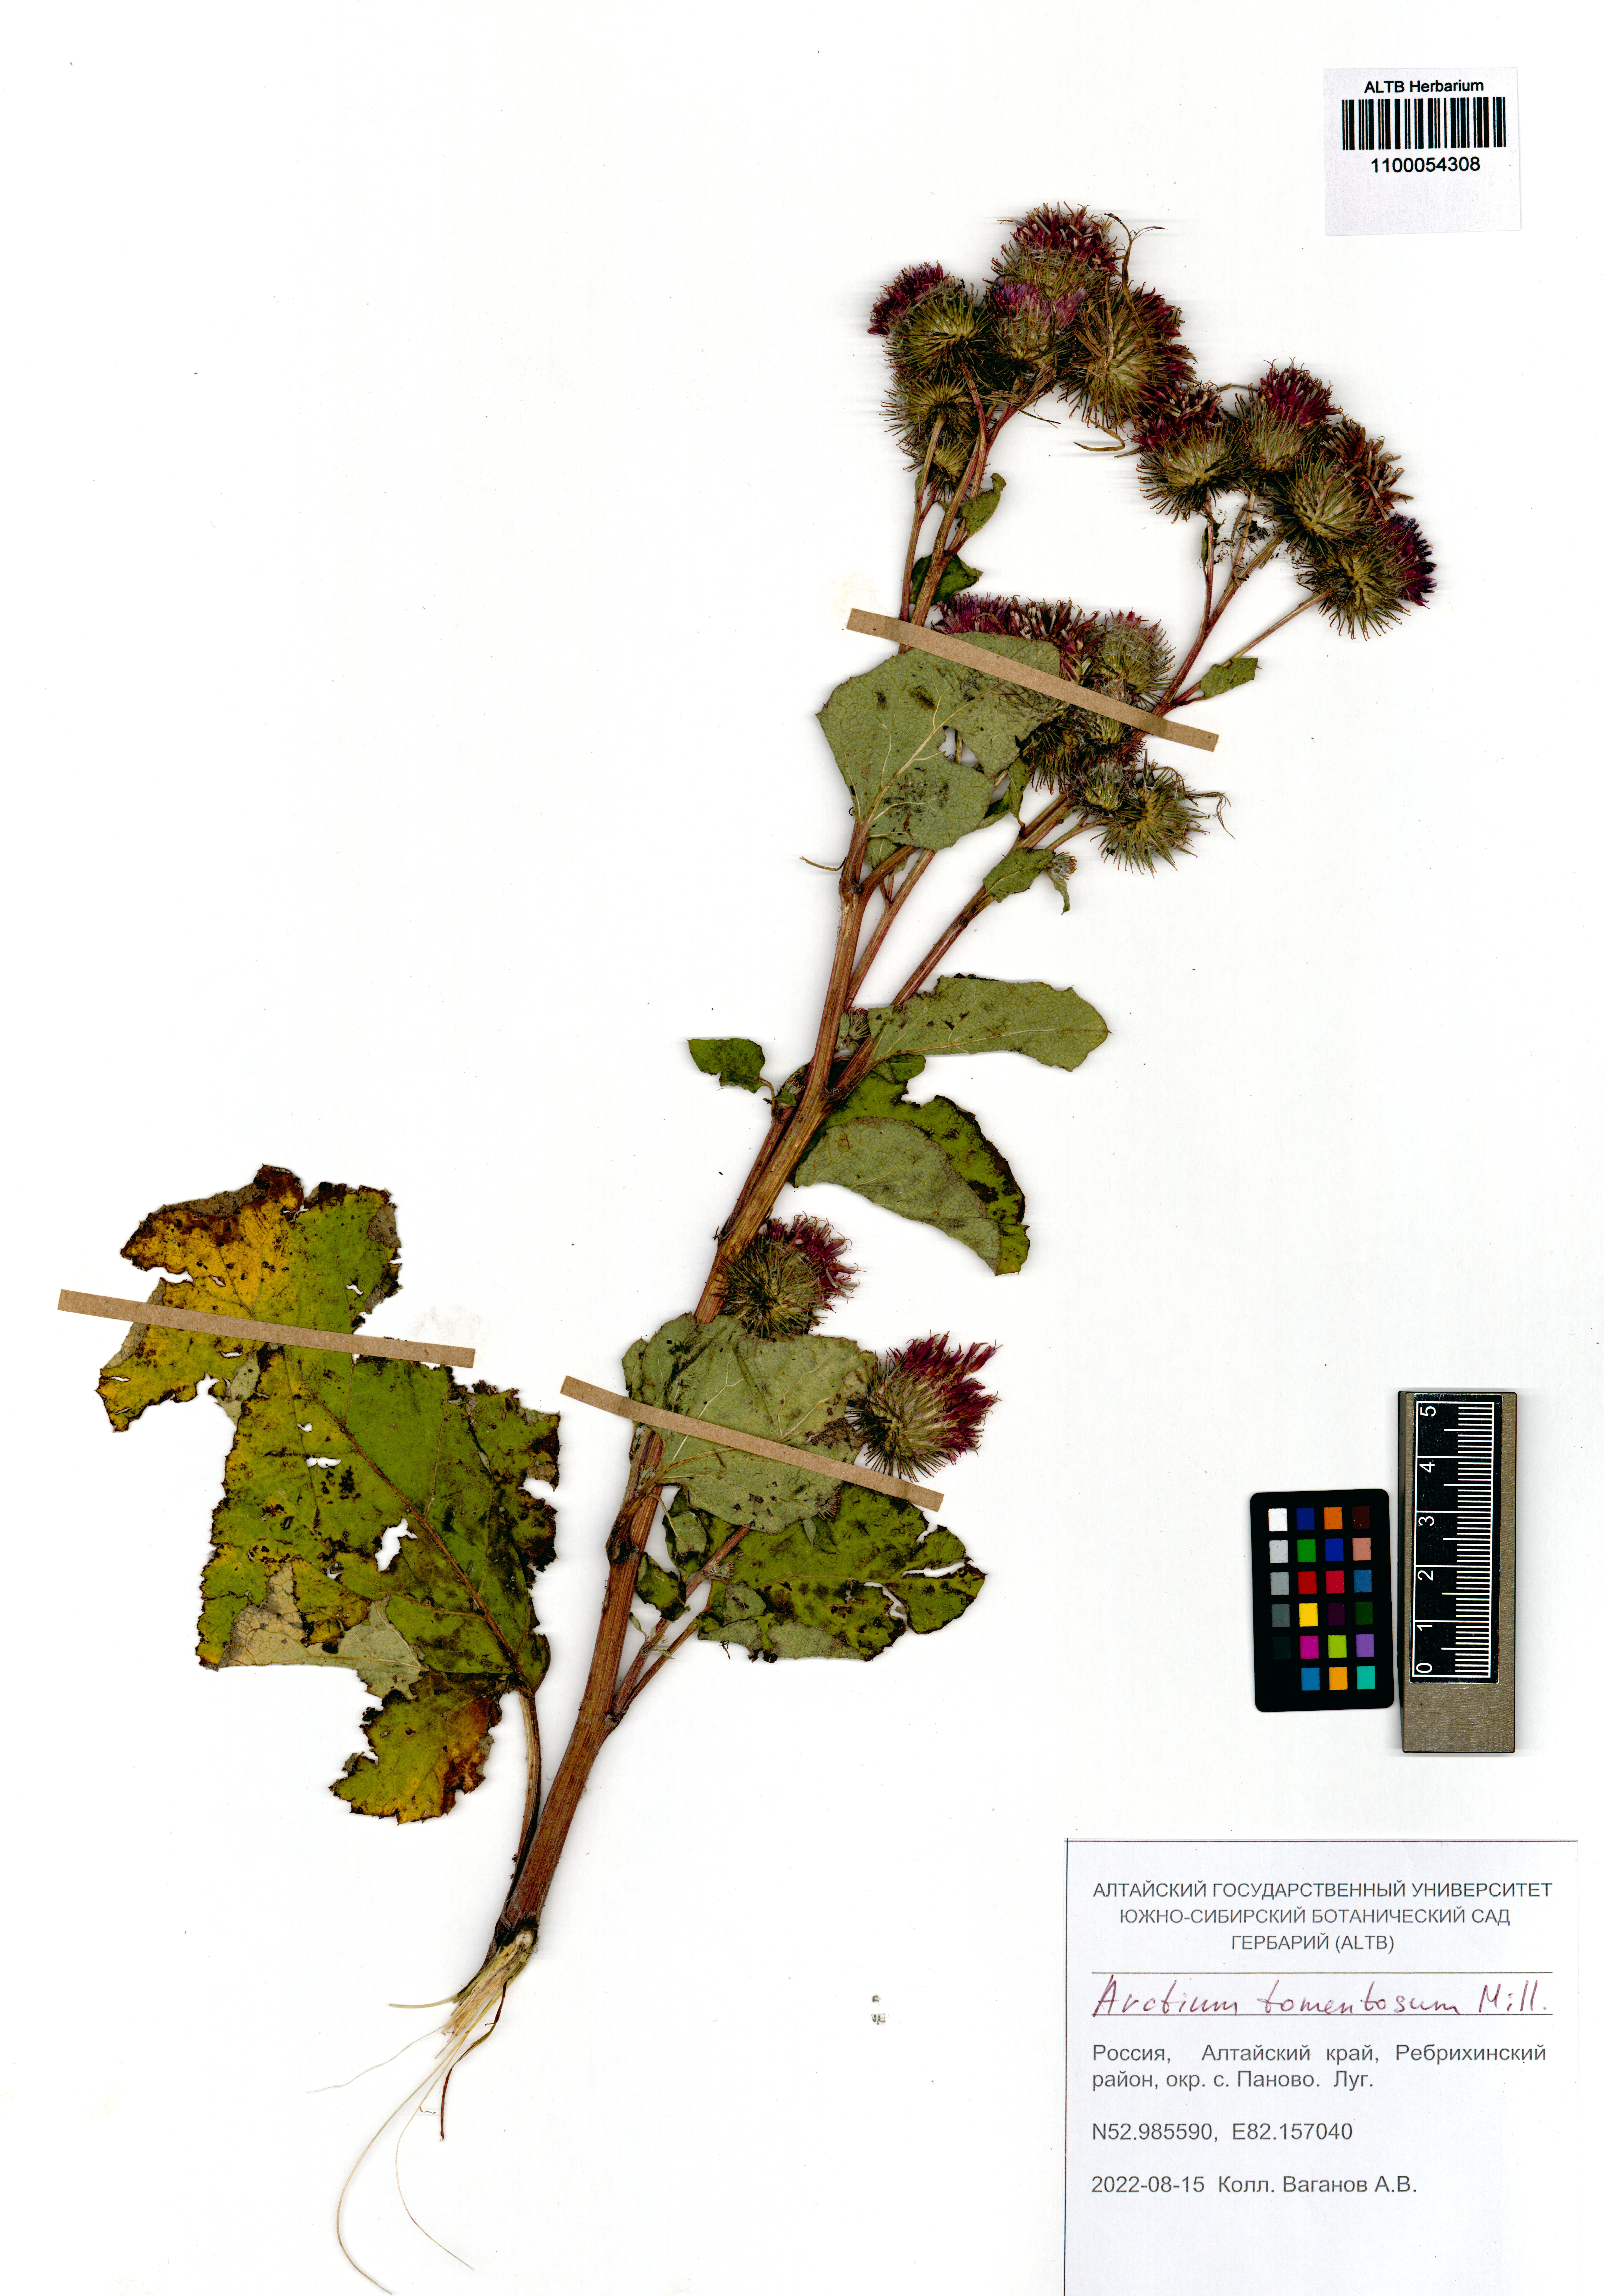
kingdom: Plantae
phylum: Tracheophyta
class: Magnoliopsida
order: Asterales
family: Asteraceae
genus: Arctium
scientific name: Arctium tomentosum
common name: Woolly burdock
